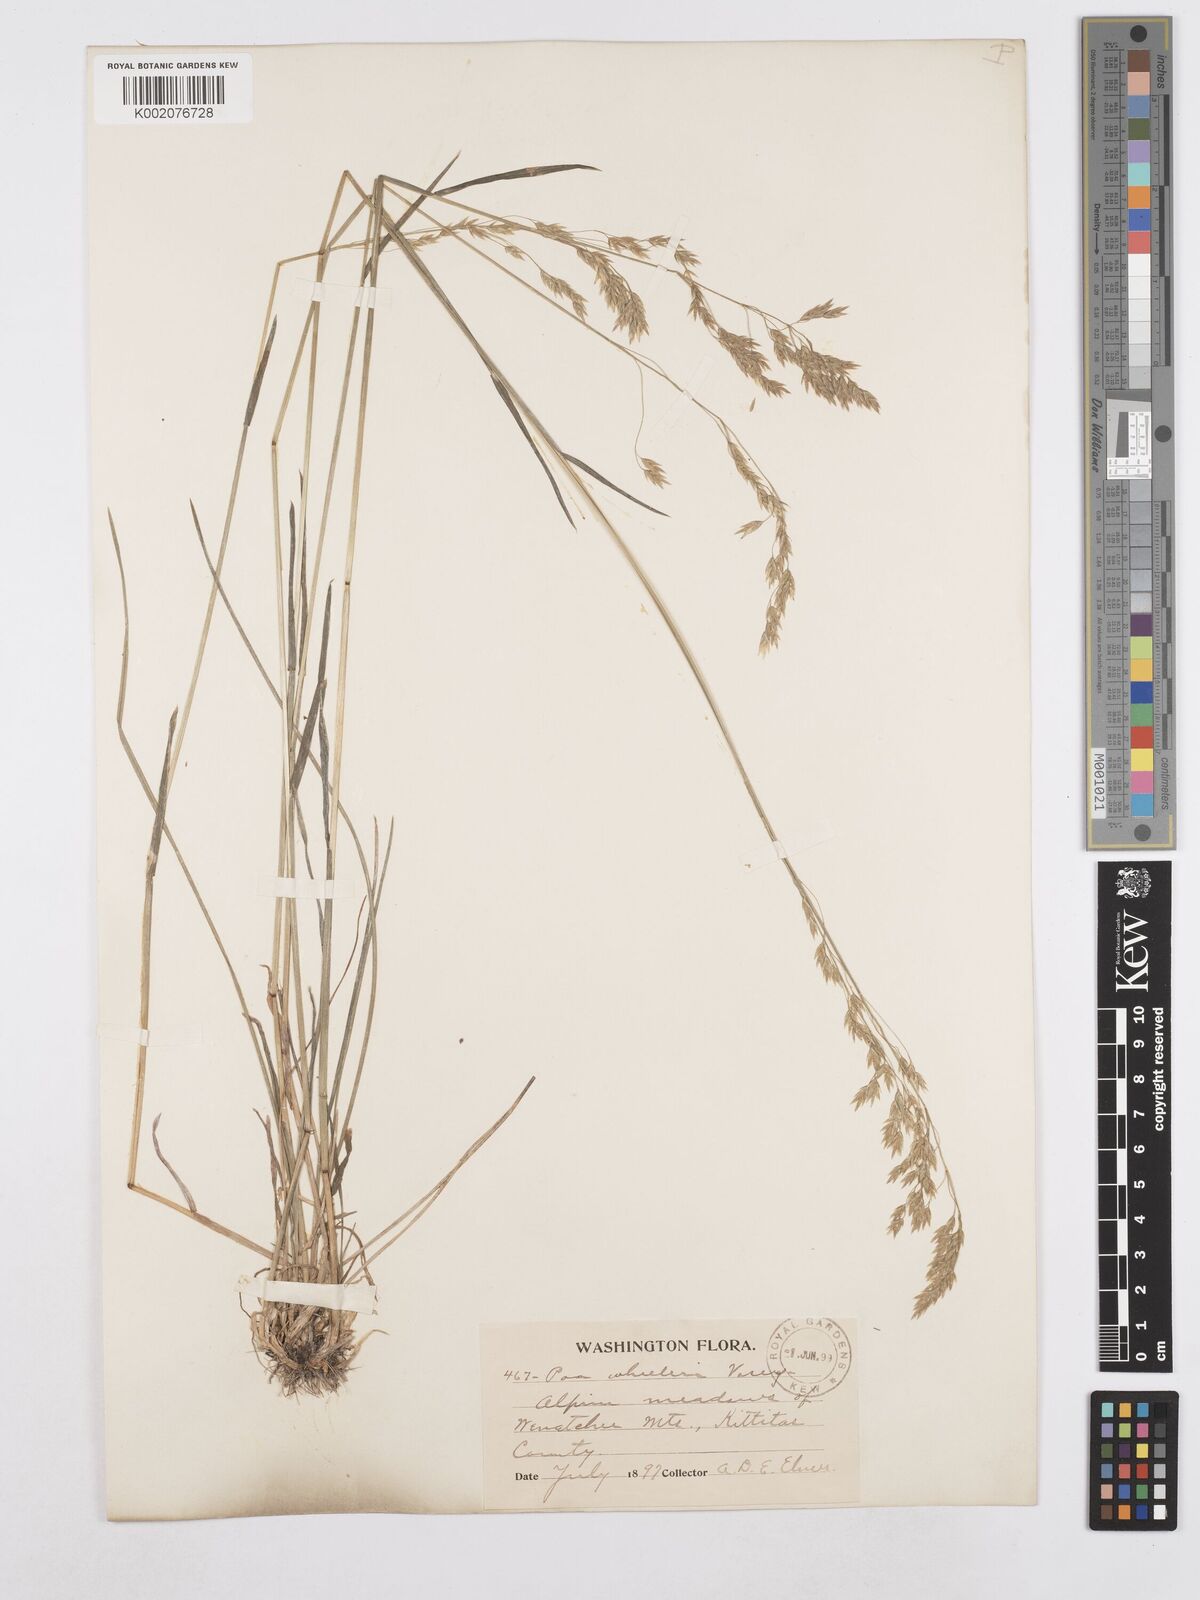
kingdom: Plantae
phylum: Tracheophyta
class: Liliopsida
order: Poales
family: Poaceae
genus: Poa
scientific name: Poa wheeleri
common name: Wheeler's bluegrass
